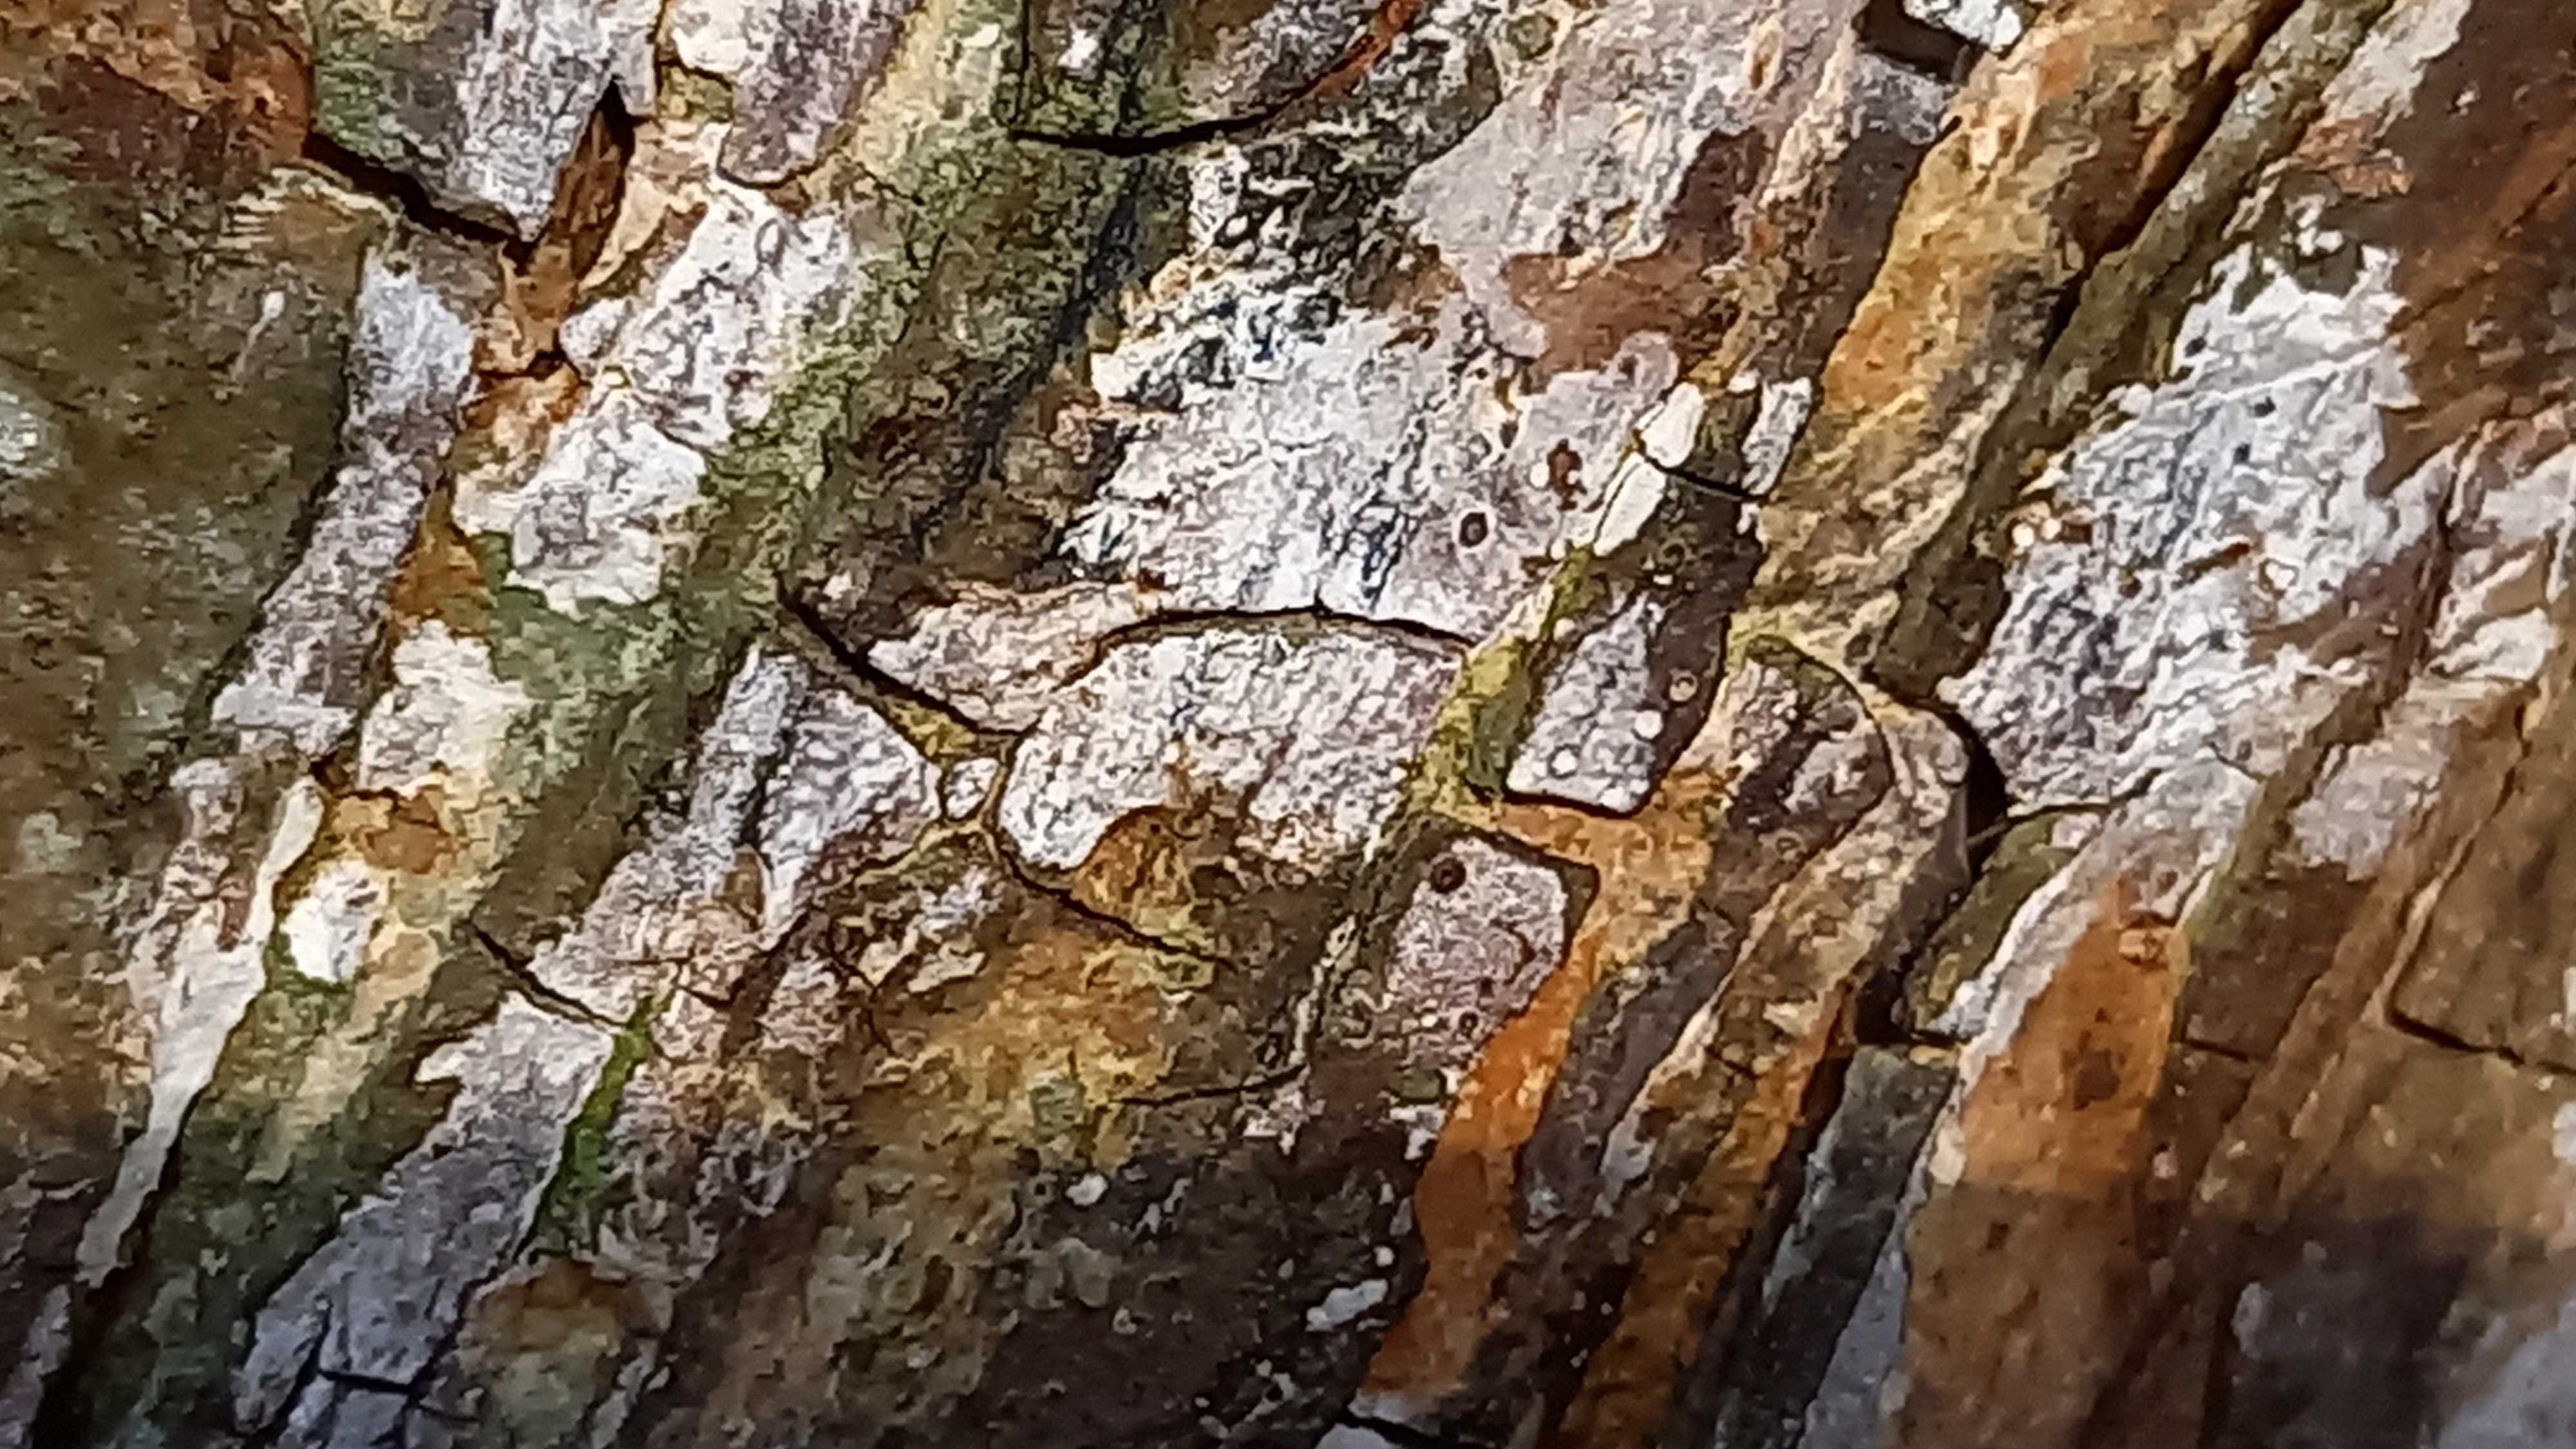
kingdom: Fungi
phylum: Basidiomycota
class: Agaricomycetes
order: Agaricales
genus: Dendrothele
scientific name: Dendrothele acerina
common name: navr-kalkplet
